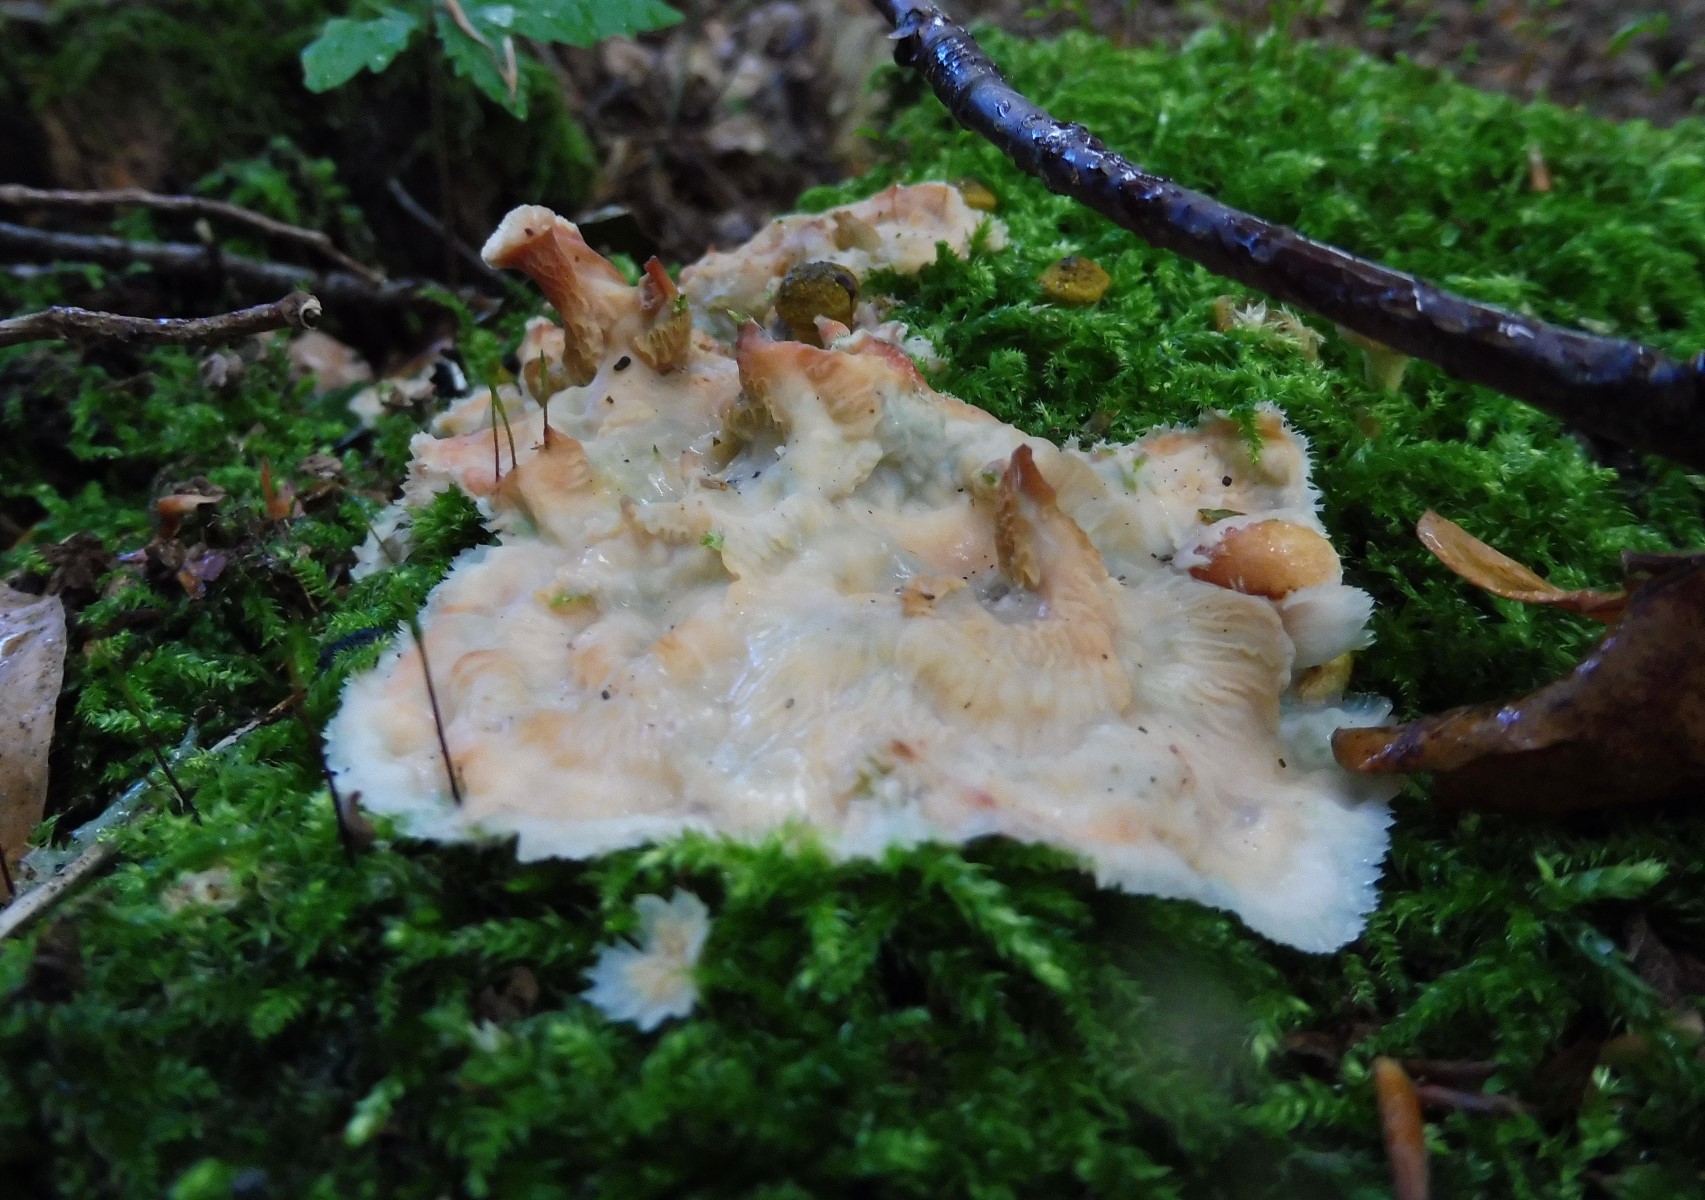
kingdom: Fungi
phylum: Basidiomycota
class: Agaricomycetes
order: Polyporales
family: Meruliaceae
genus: Phlebia
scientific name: Phlebia tremellosa
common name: bævrende åresvamp
